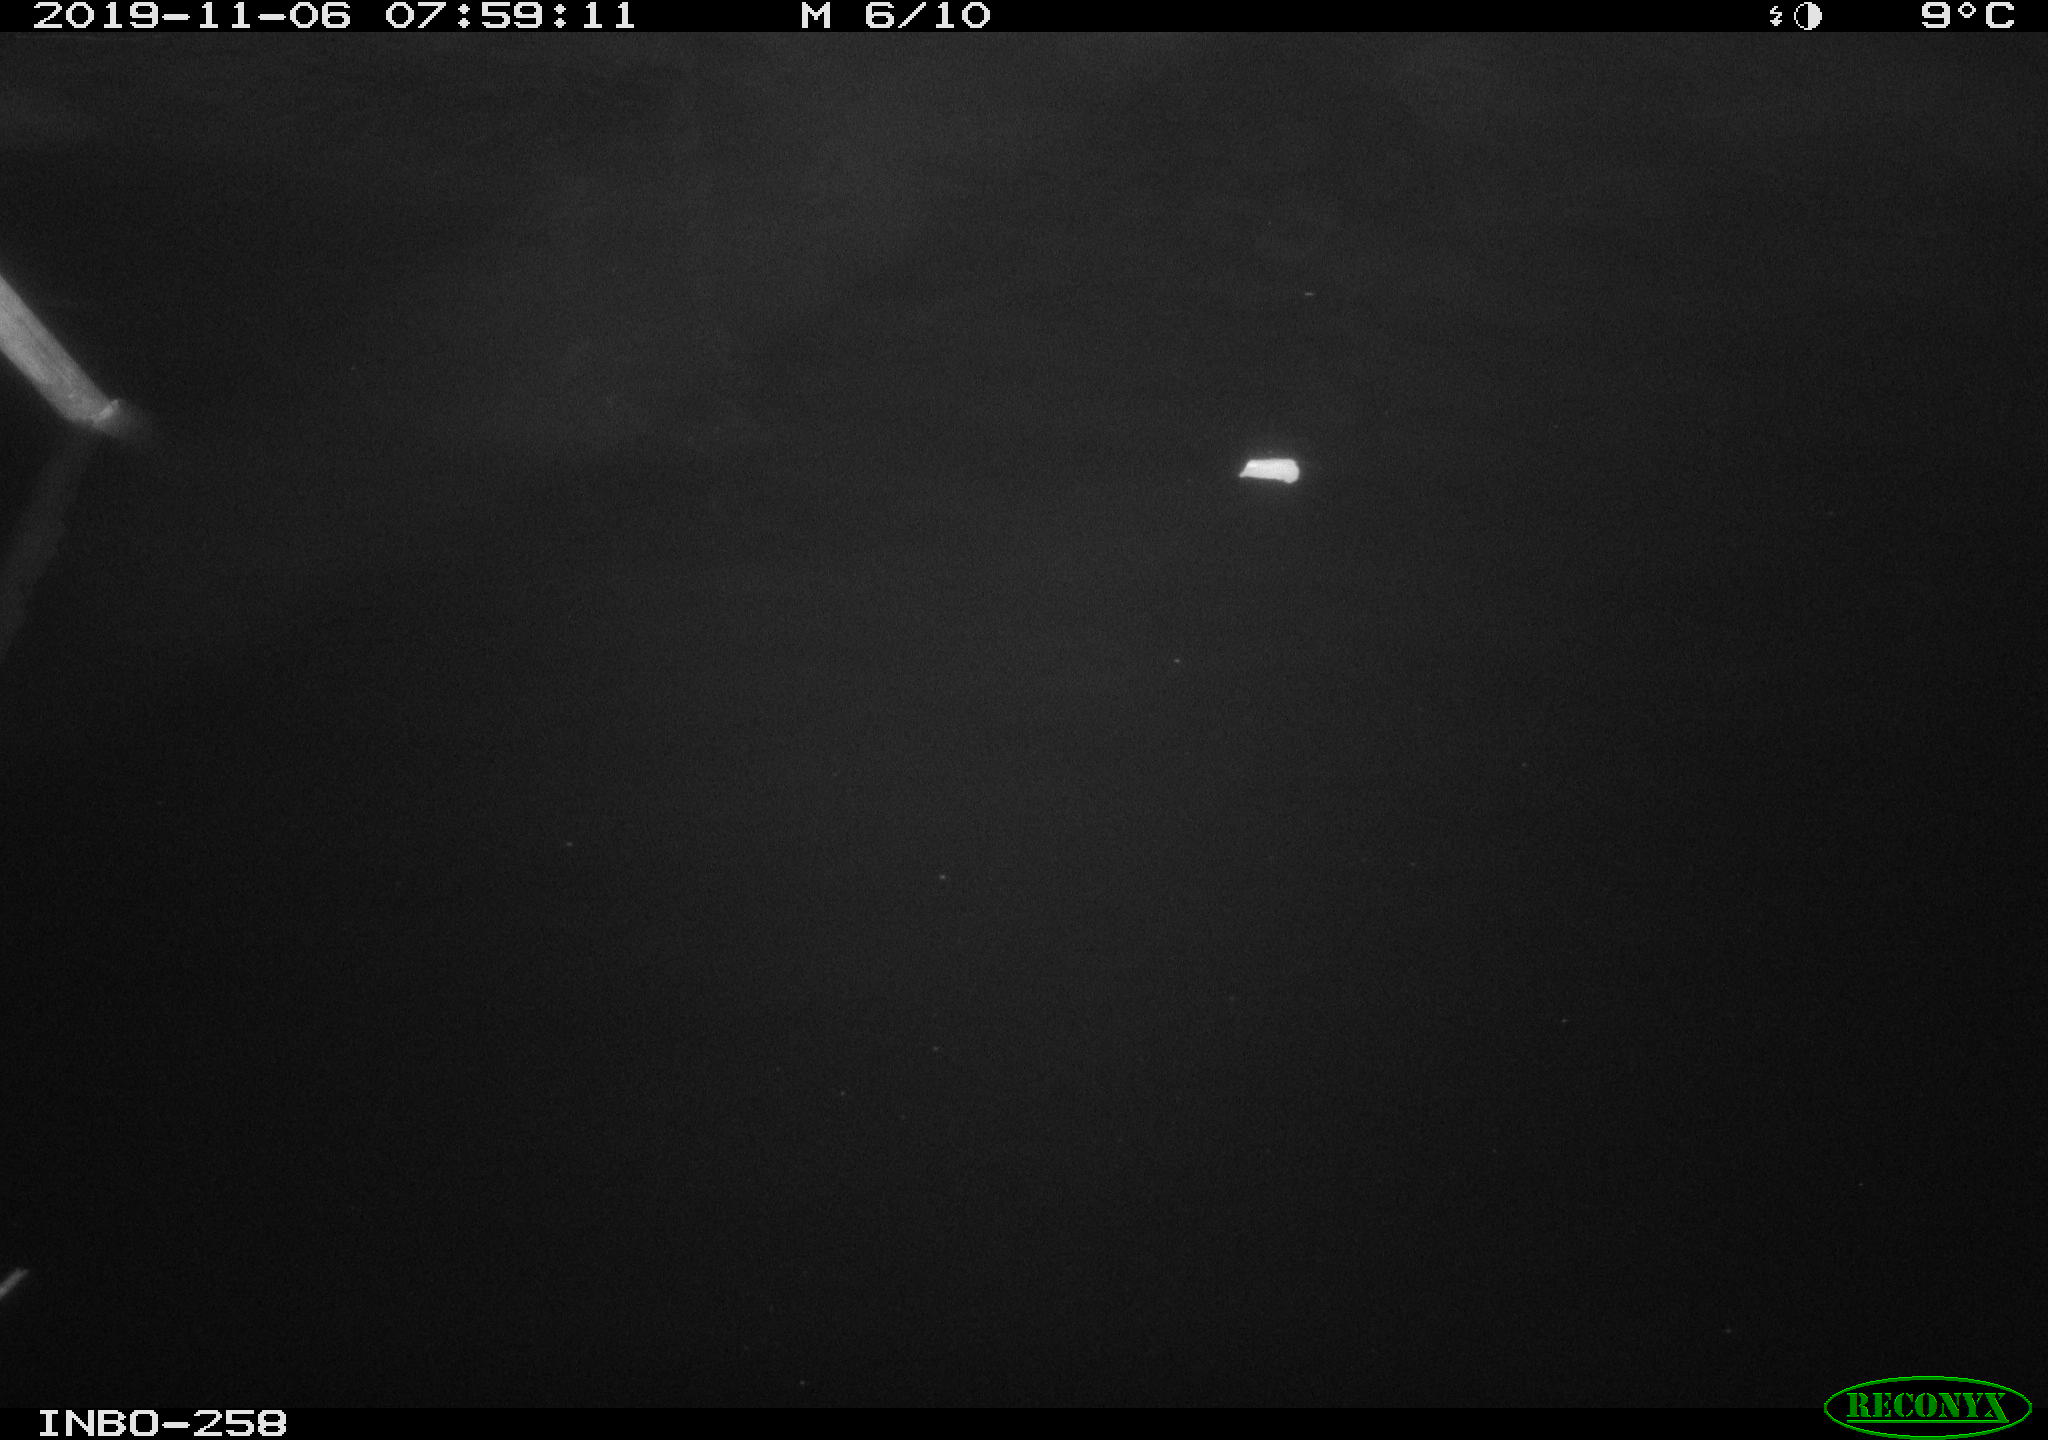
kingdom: Animalia
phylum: Chordata
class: Aves
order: Anseriformes
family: Anatidae
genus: Anas
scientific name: Anas platyrhynchos
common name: Mallard
